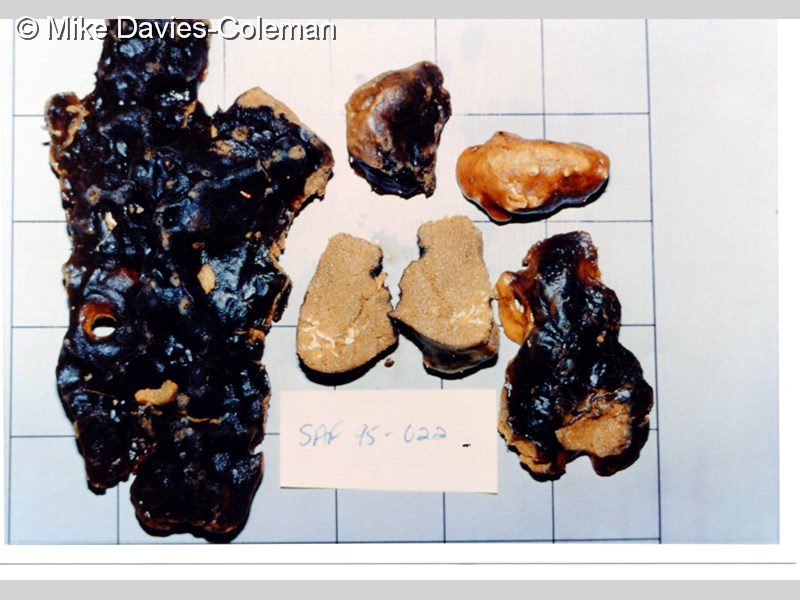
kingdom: Animalia
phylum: Porifera
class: Demospongiae
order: Poecilosclerida
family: Guitarridae
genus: Guitarra
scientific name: Guitarra fimbriata
